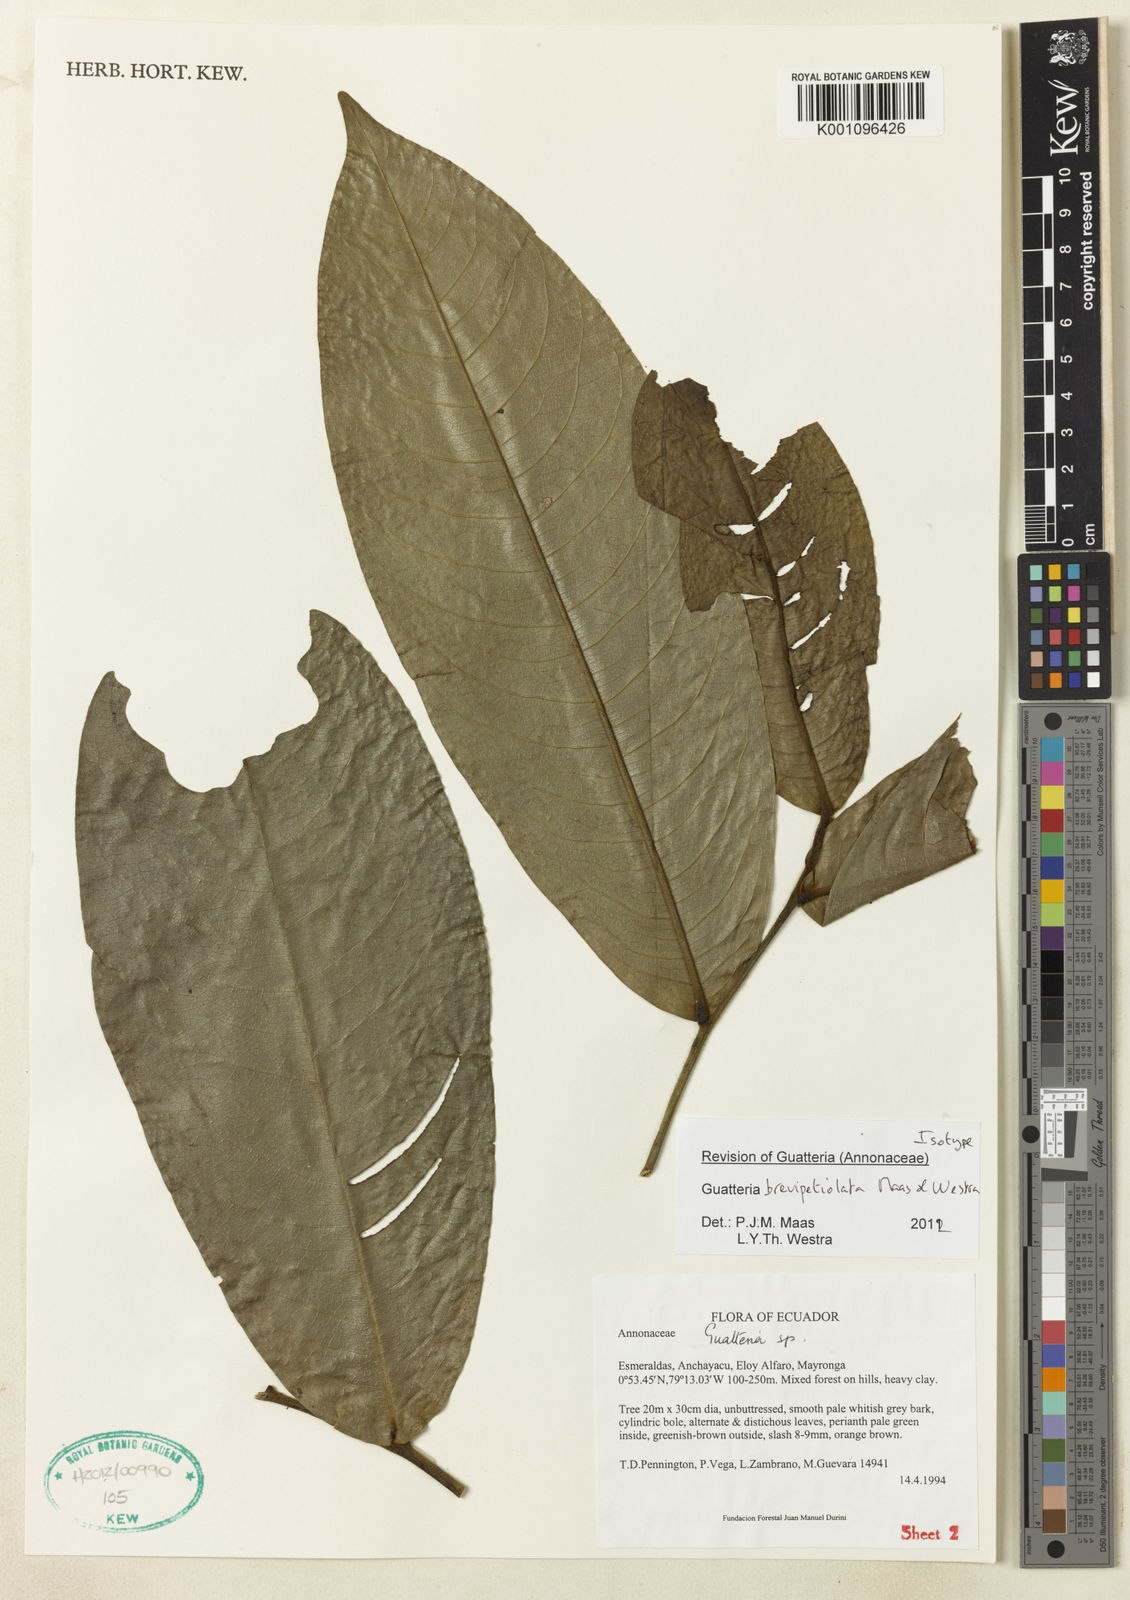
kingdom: Plantae
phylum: Tracheophyta
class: Magnoliopsida
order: Magnoliales
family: Annonaceae
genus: Guatteria
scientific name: Guatteria brevipetiolata
